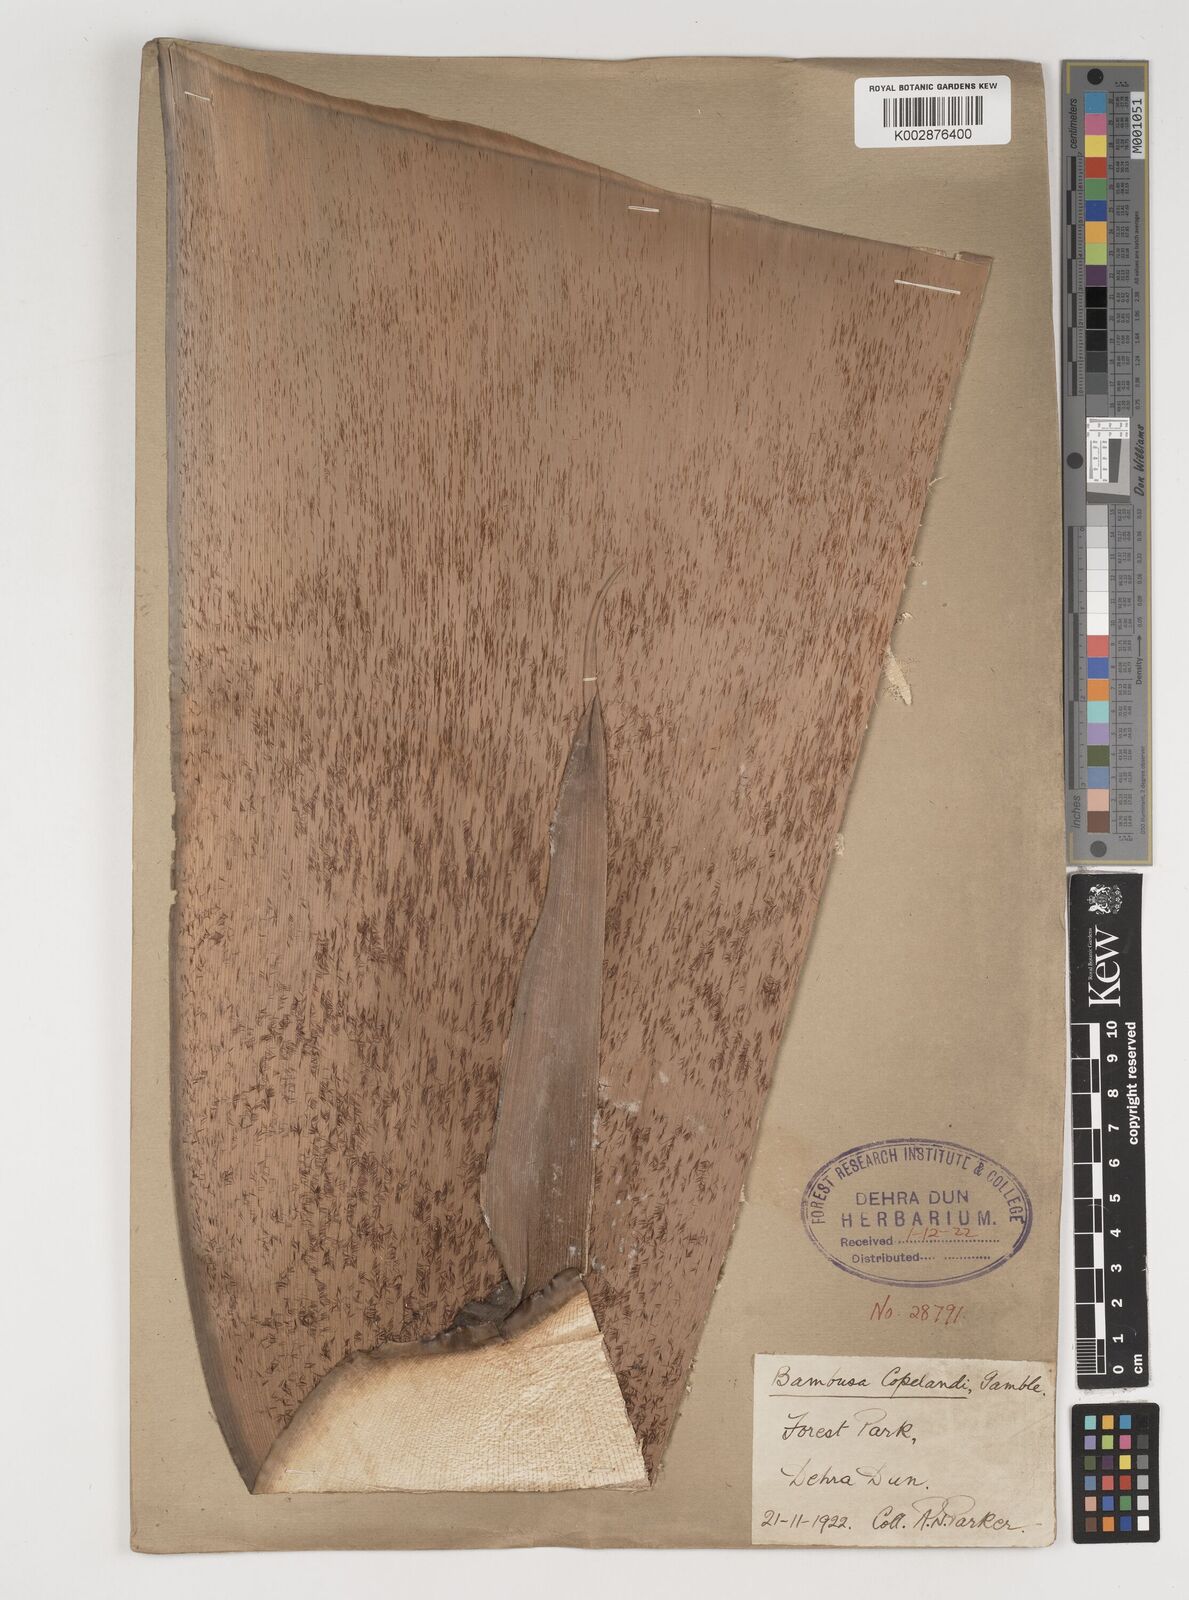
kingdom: Plantae
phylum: Tracheophyta
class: Liliopsida
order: Poales
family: Poaceae
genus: Bambusa
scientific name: Bambusa copelandii
